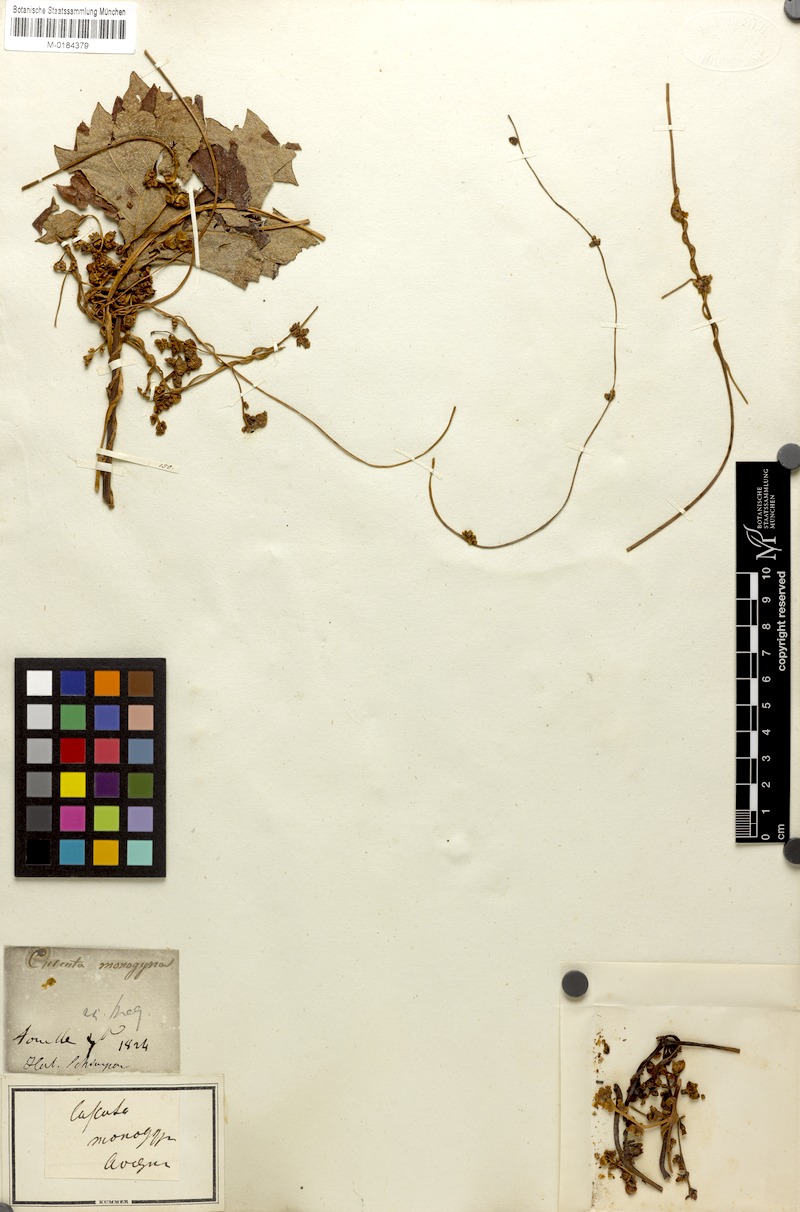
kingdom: Plantae
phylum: Tracheophyta
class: Magnoliopsida
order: Solanales
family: Convolvulaceae
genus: Cuscuta
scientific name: Cuscuta monogyna
